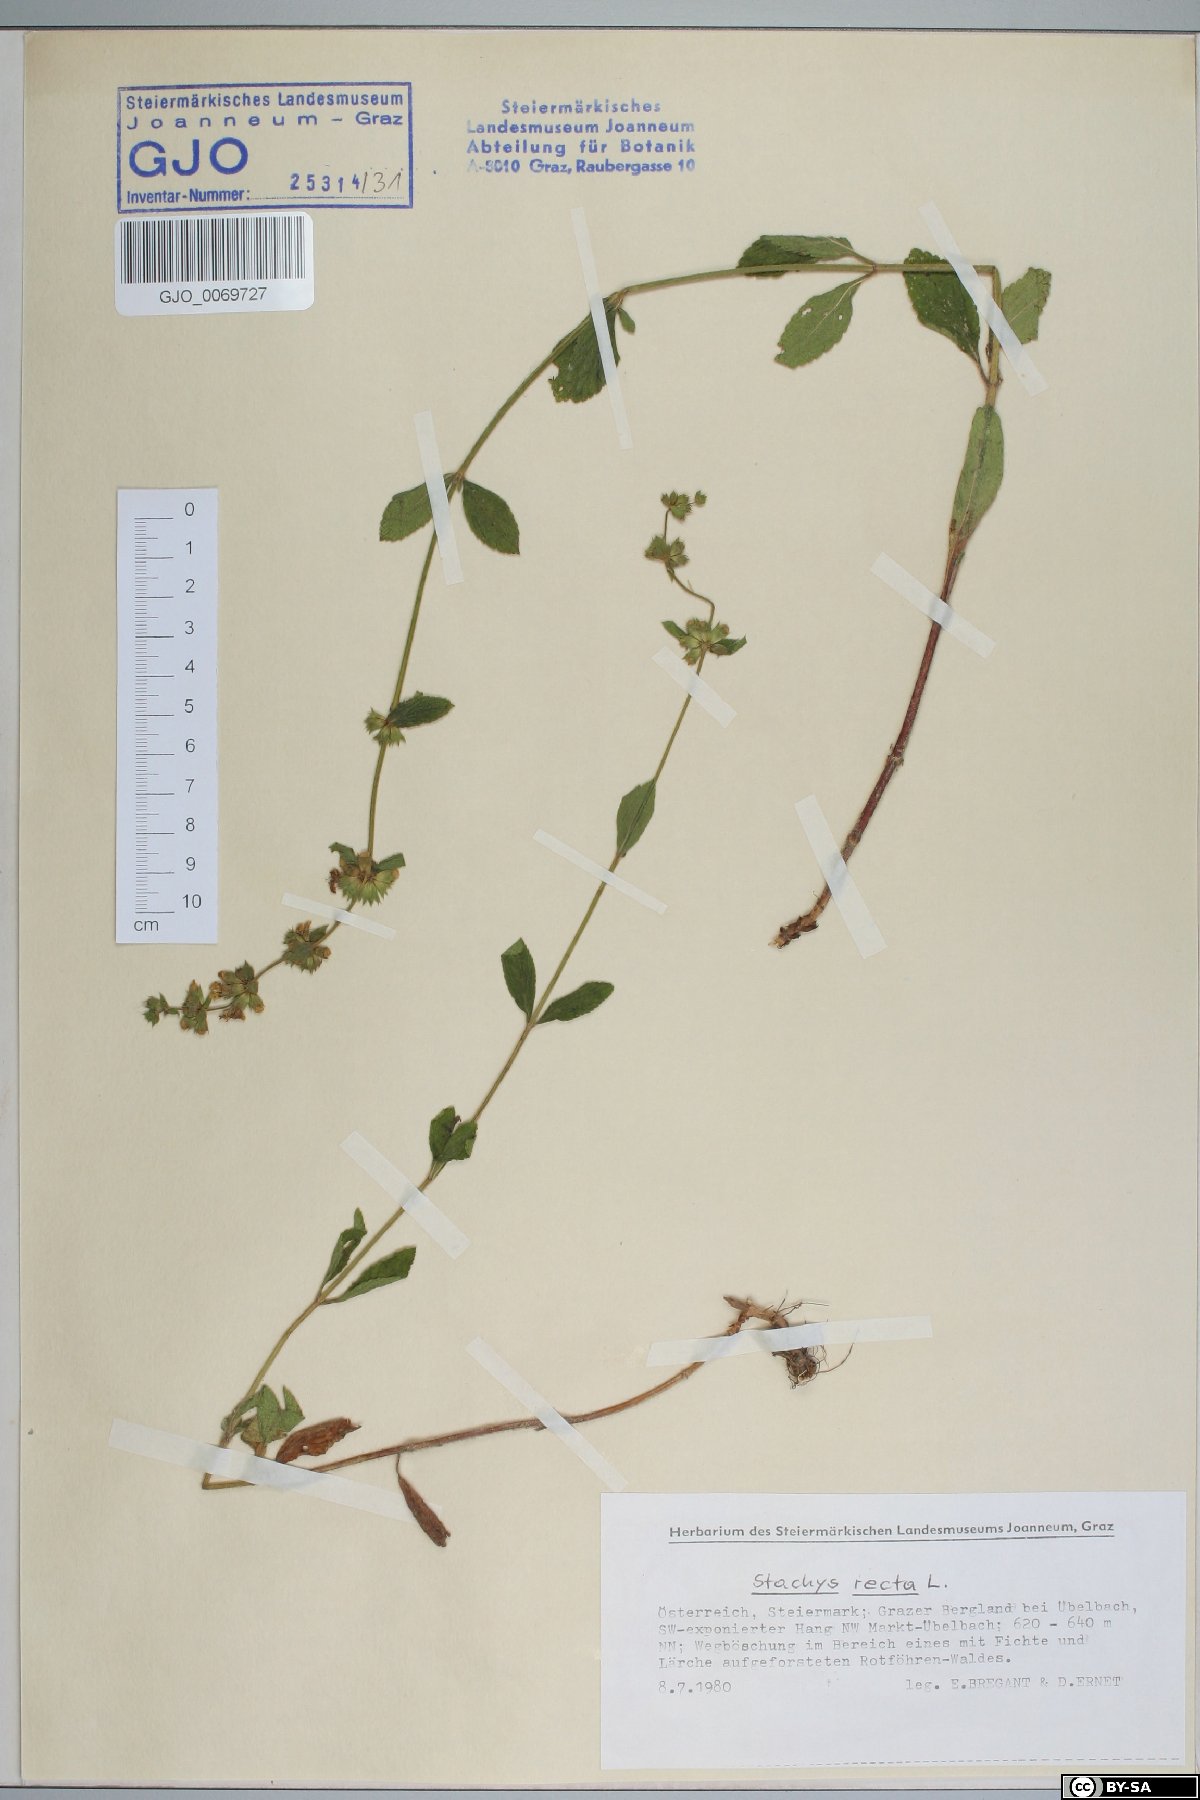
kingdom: Plantae
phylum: Tracheophyta
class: Magnoliopsida
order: Lamiales
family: Lamiaceae
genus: Stachys
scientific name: Stachys recta
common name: Perennial yellow-woundwort
